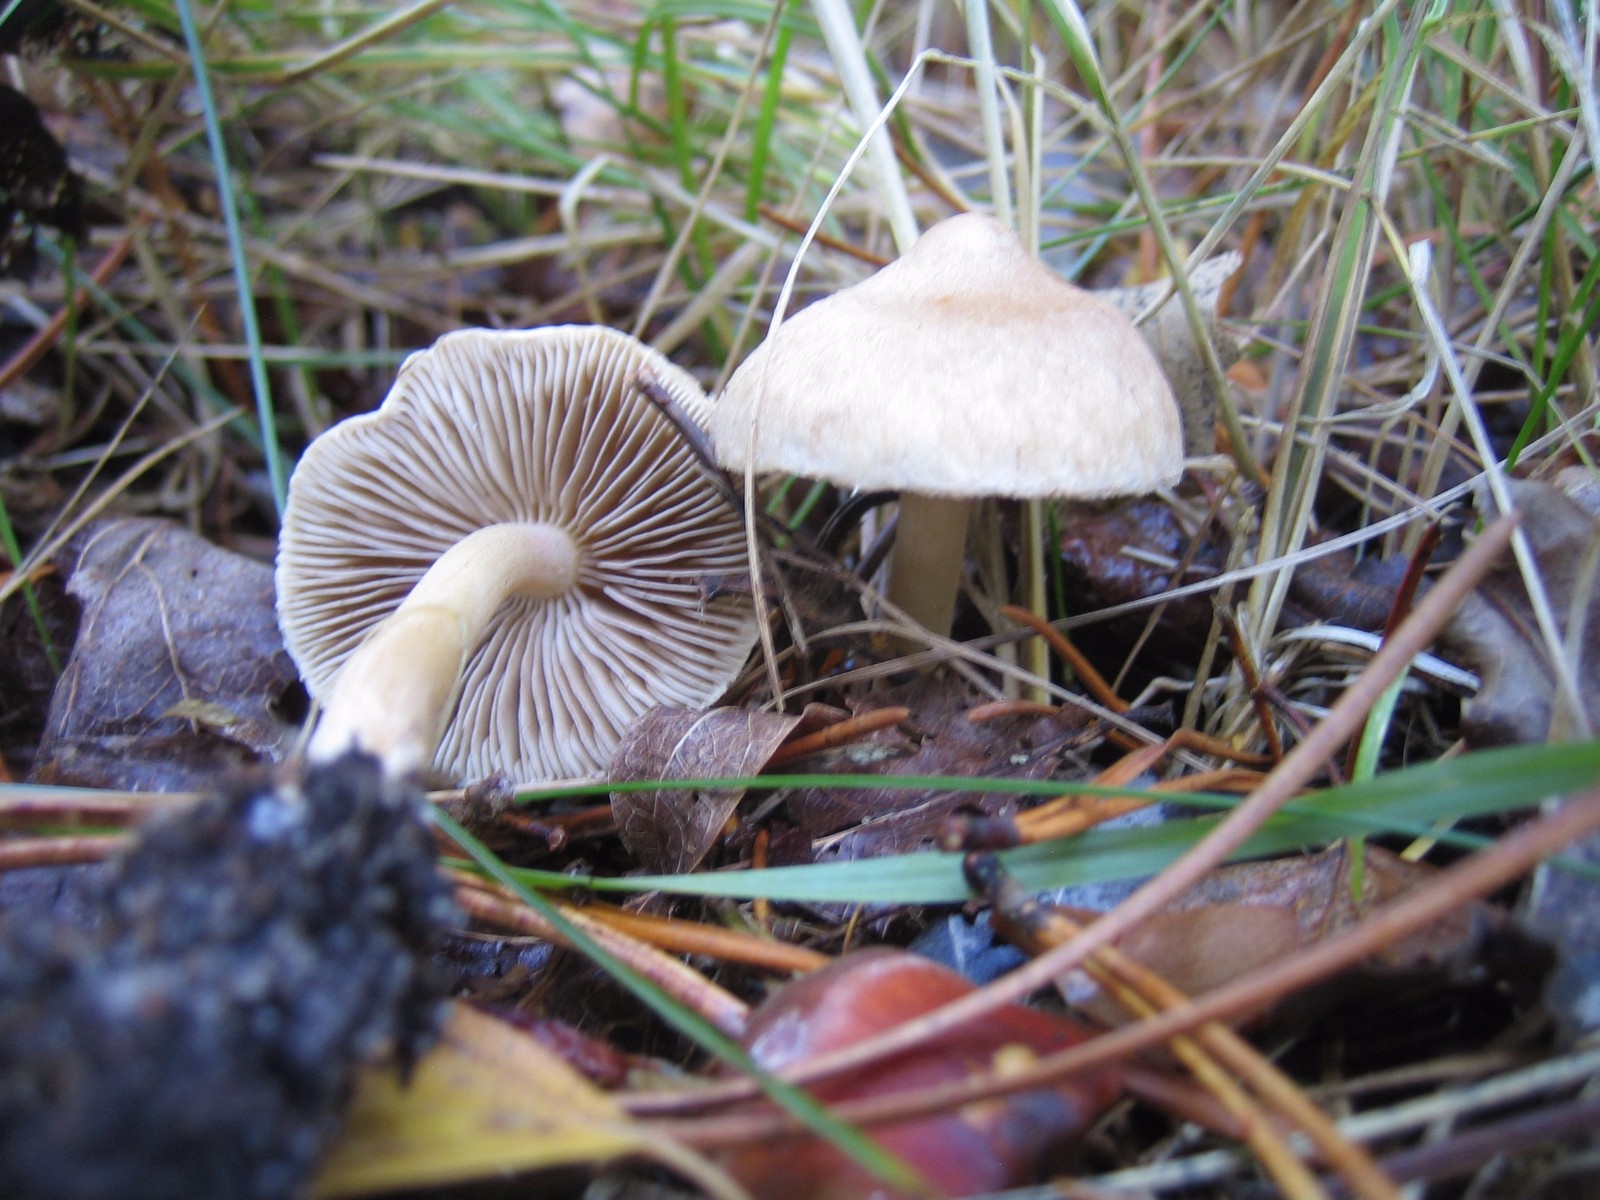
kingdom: Fungi
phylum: Basidiomycota
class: Agaricomycetes
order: Agaricales
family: Inocybaceae
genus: Inocybe
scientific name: Inocybe sindonia
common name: bleg trævlhat
